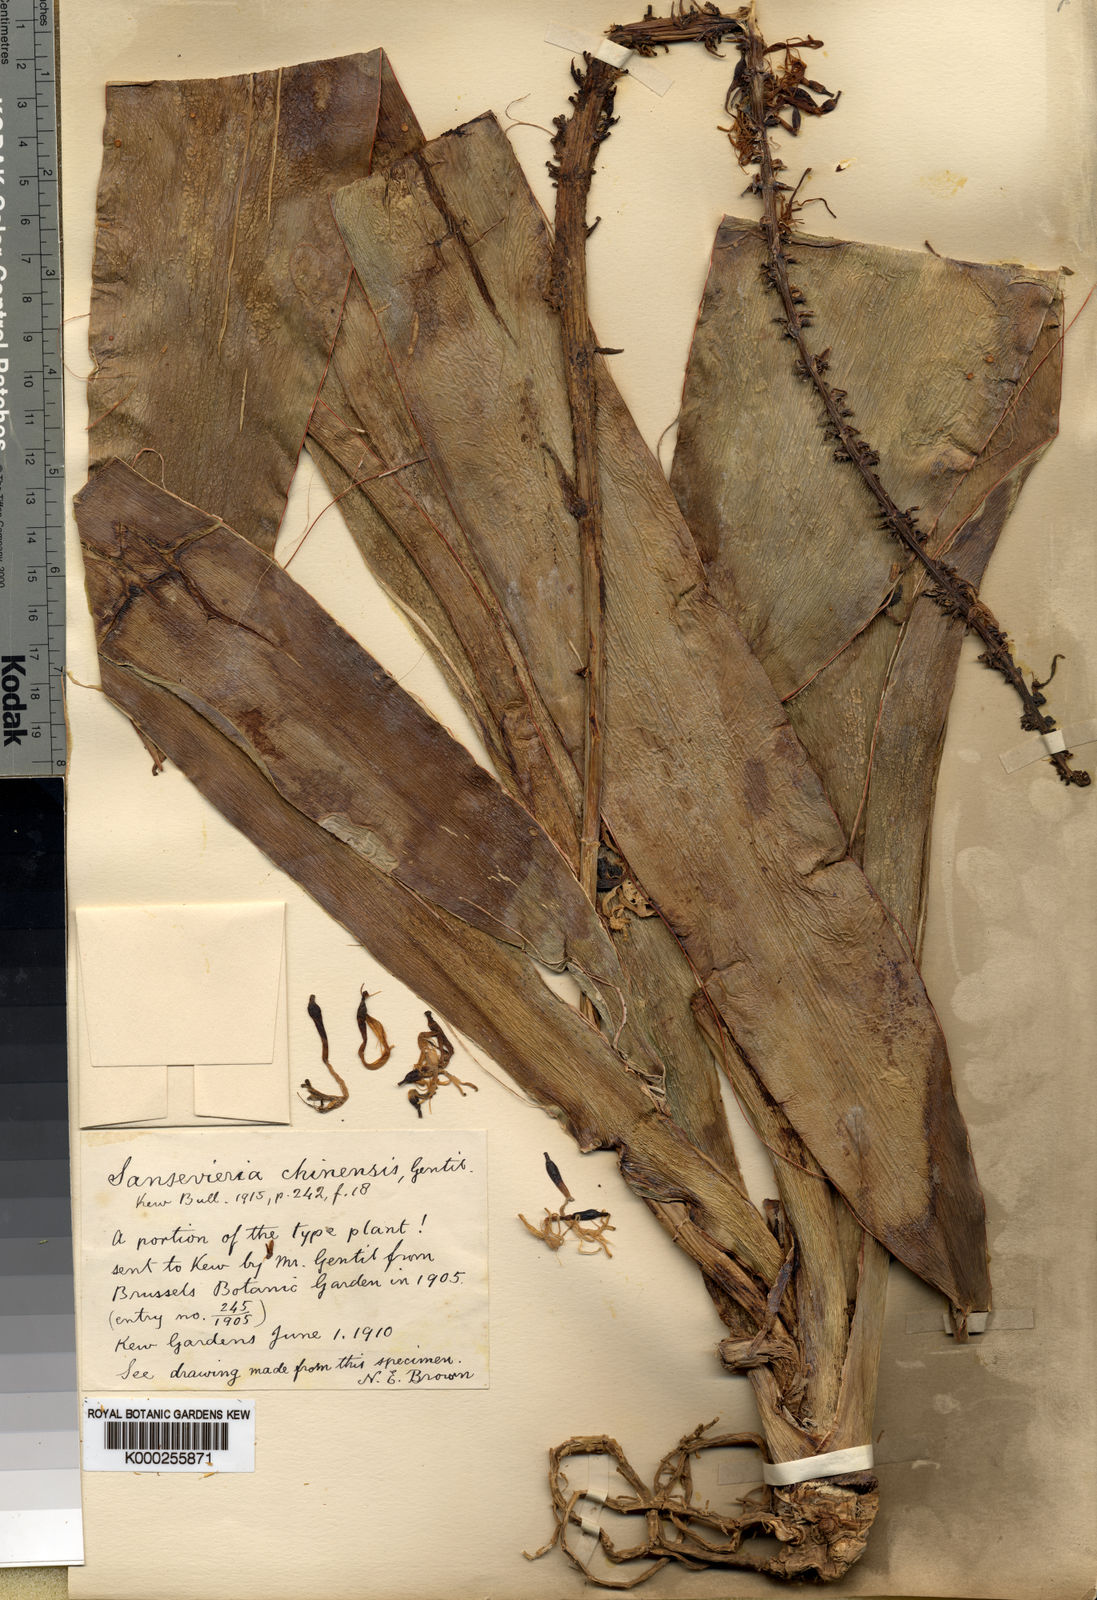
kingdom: Plantae
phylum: Tracheophyta
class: Liliopsida
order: Asparagales
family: Asparagaceae
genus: Dracaena
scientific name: Dracaena
